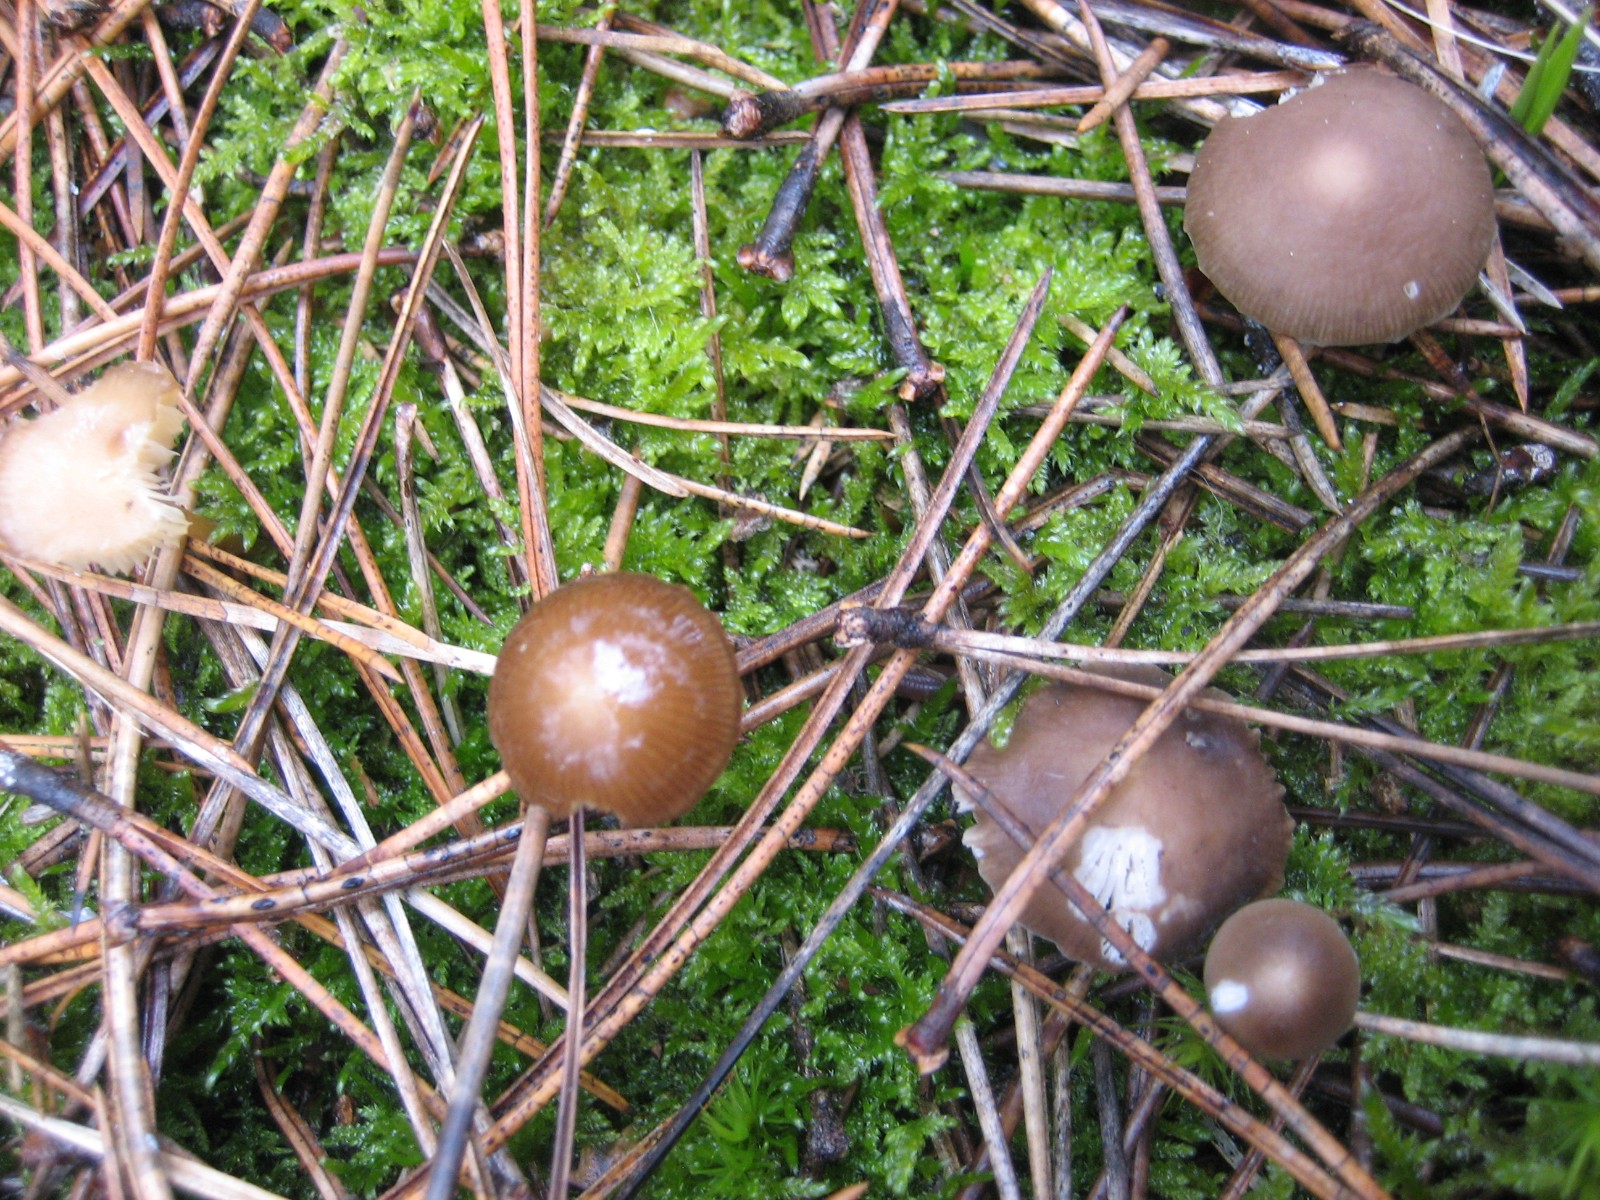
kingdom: Fungi
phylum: Basidiomycota
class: Agaricomycetes
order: Agaricales
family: Physalacriaceae
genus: Strobilurus
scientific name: Strobilurus
